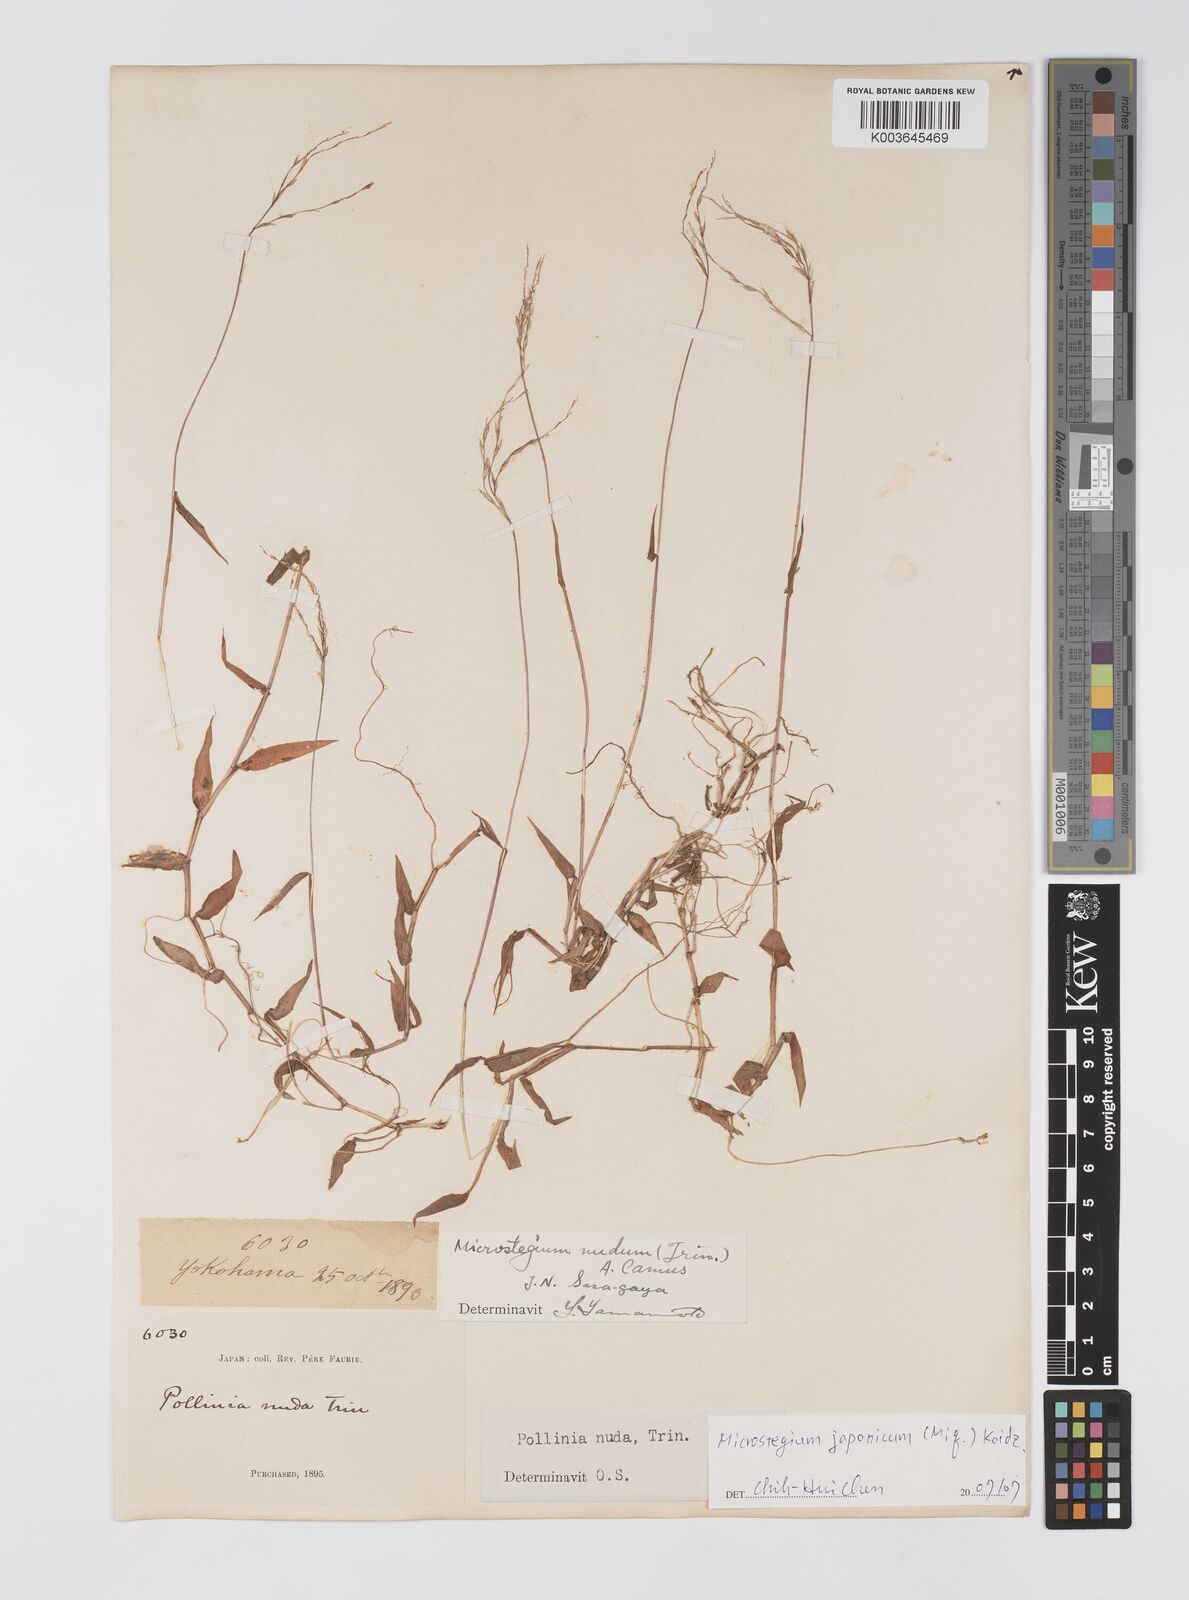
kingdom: Plantae
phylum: Tracheophyta
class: Liliopsida
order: Poales
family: Poaceae
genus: Microstegium
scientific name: Microstegium japonicum
